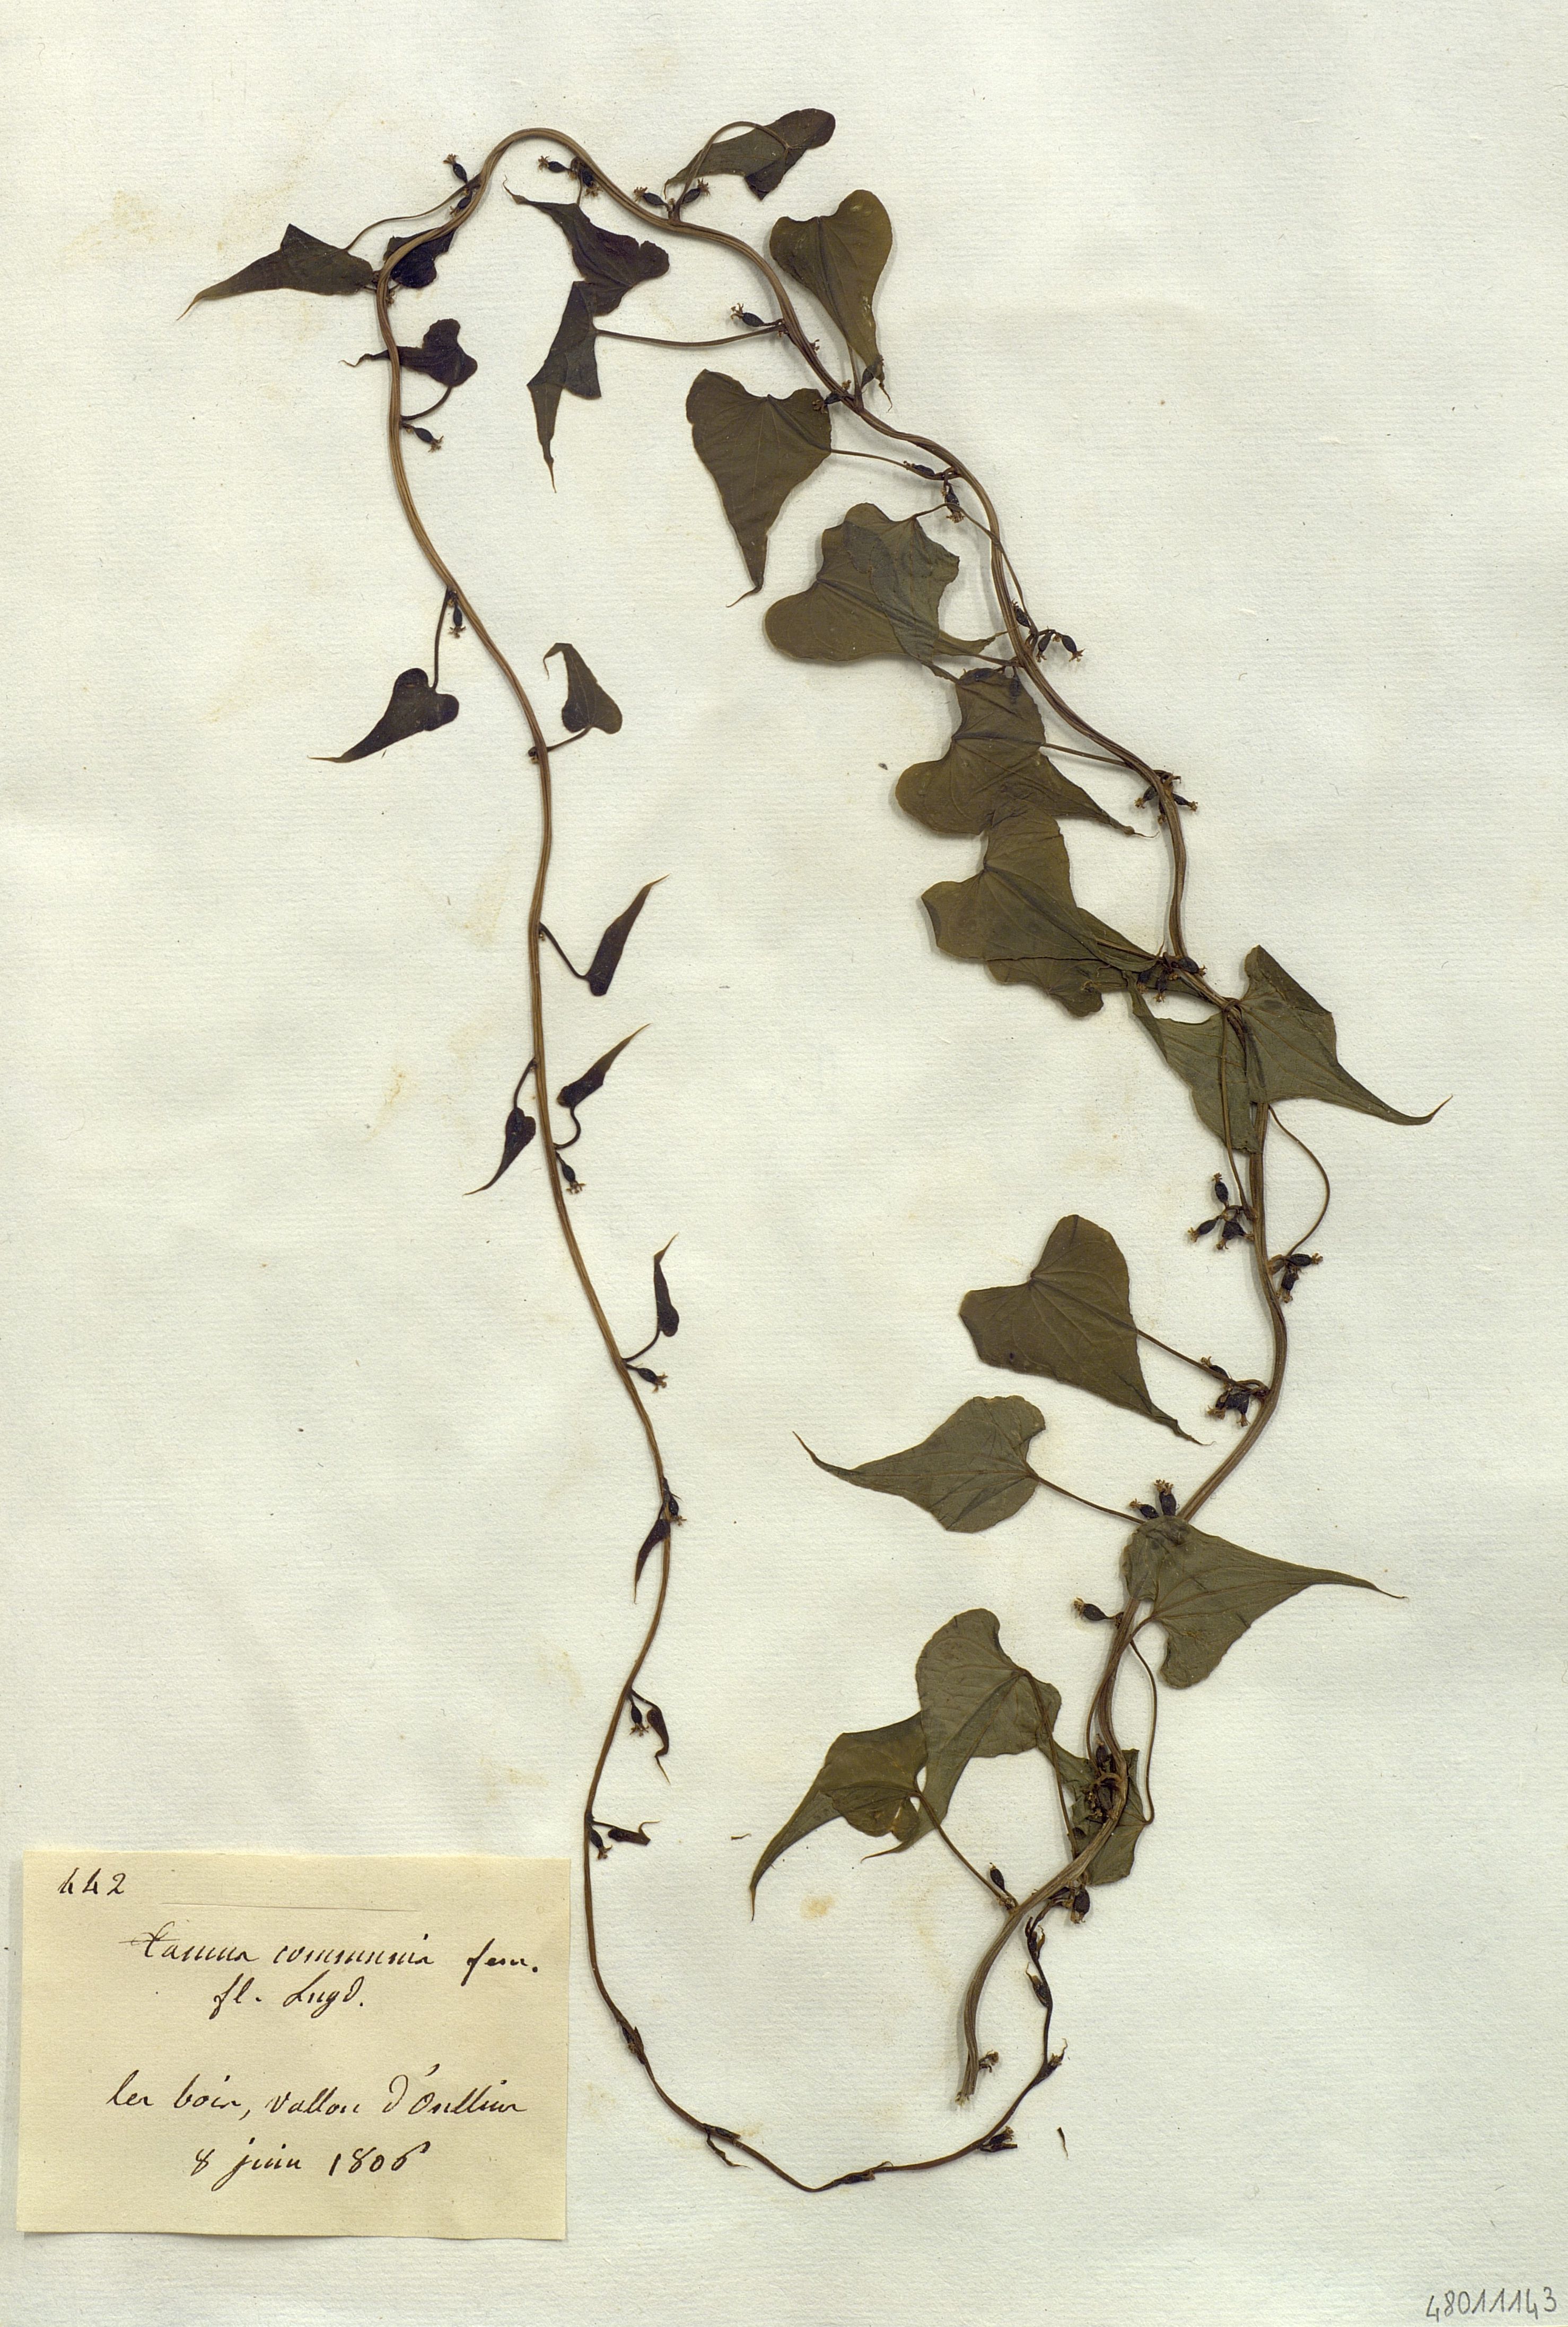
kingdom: Plantae
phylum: Tracheophyta
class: Liliopsida
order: Dioscoreales
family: Dioscoreaceae
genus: Dioscorea
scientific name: Dioscorea communis
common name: Black-bindweed
